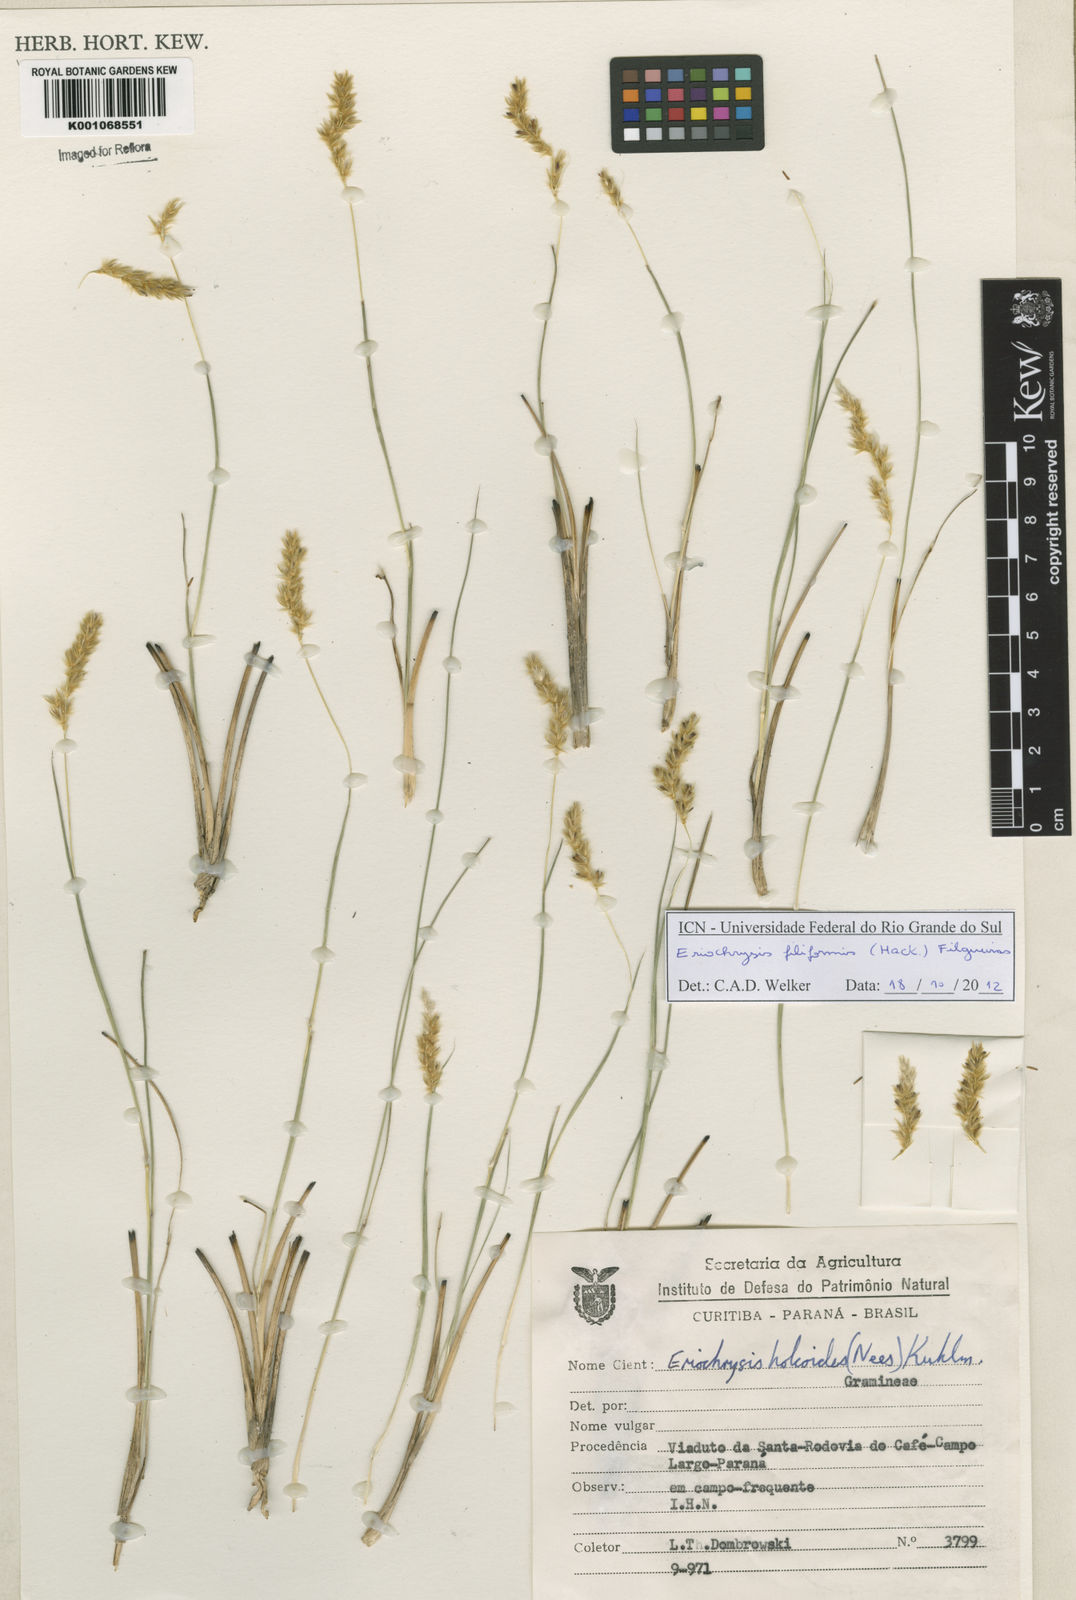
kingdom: Plantae
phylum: Tracheophyta
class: Liliopsida
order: Poales
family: Poaceae
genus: Eriochrysis
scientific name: Eriochrysis filiformis
